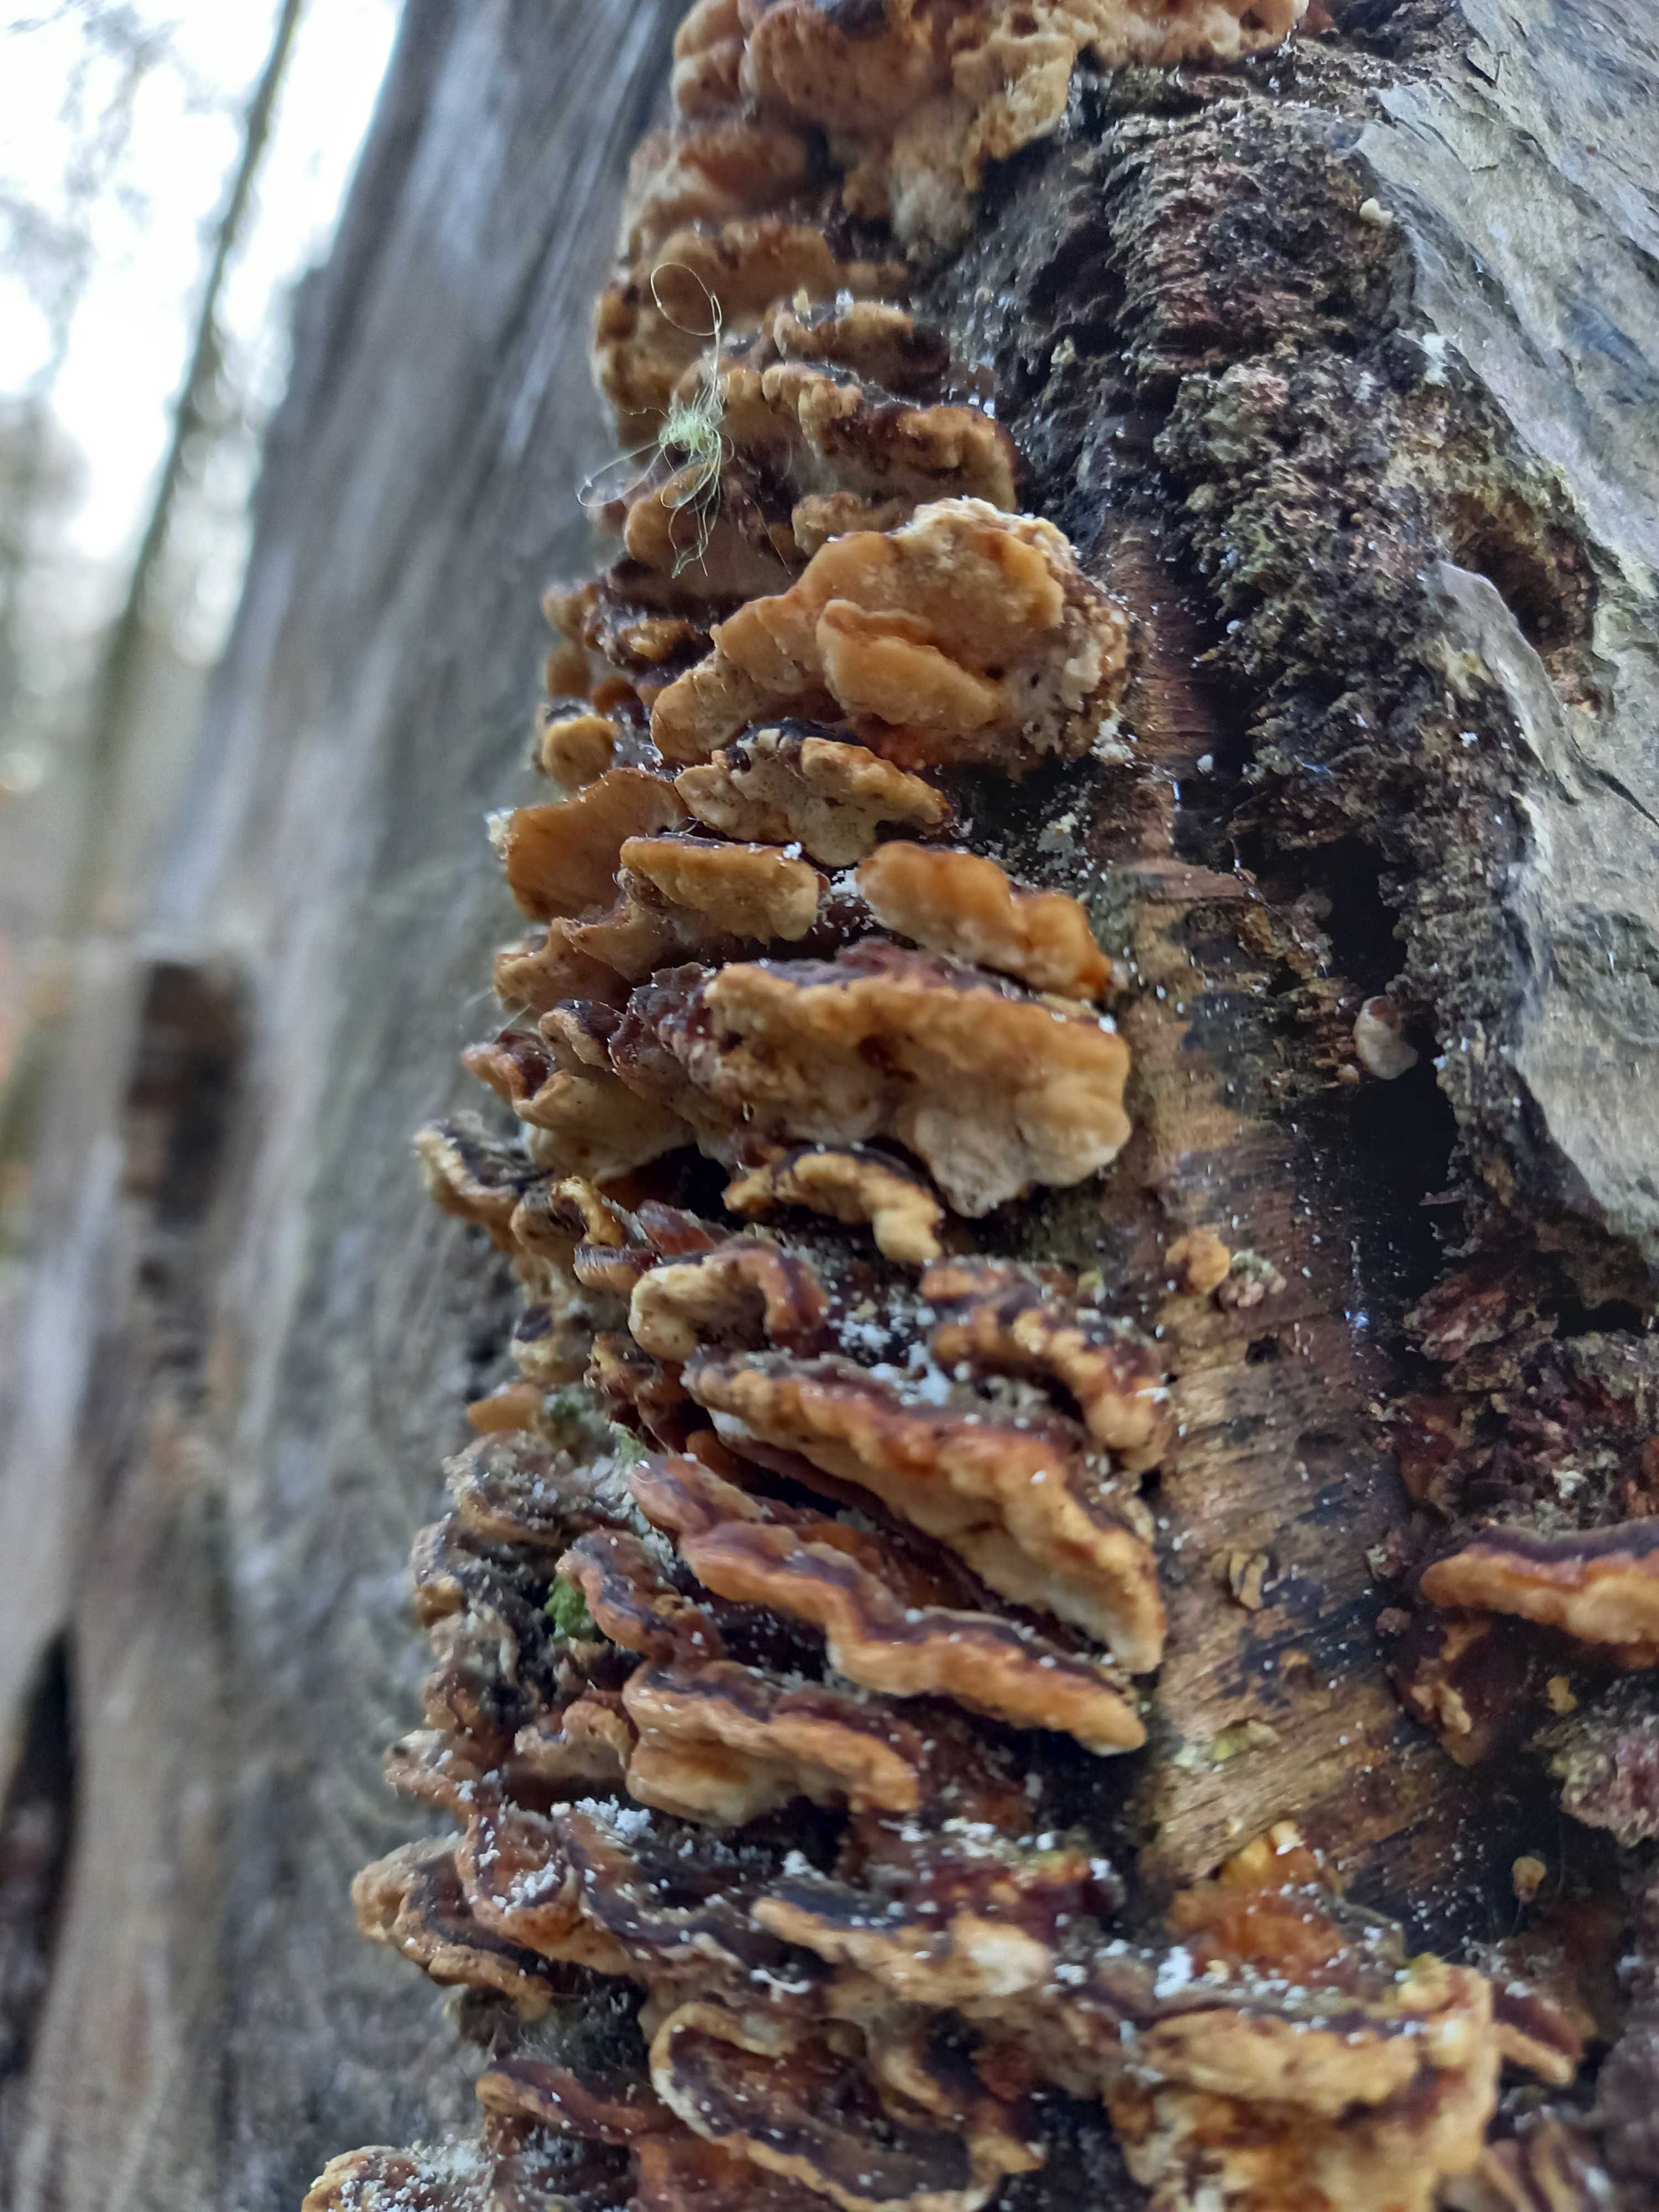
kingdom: Fungi
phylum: Basidiomycota
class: Agaricomycetes
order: Hymenochaetales
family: Hymenochaetaceae
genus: Mensularia
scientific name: Mensularia nodulosa
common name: bøge-spejlporesvamp
